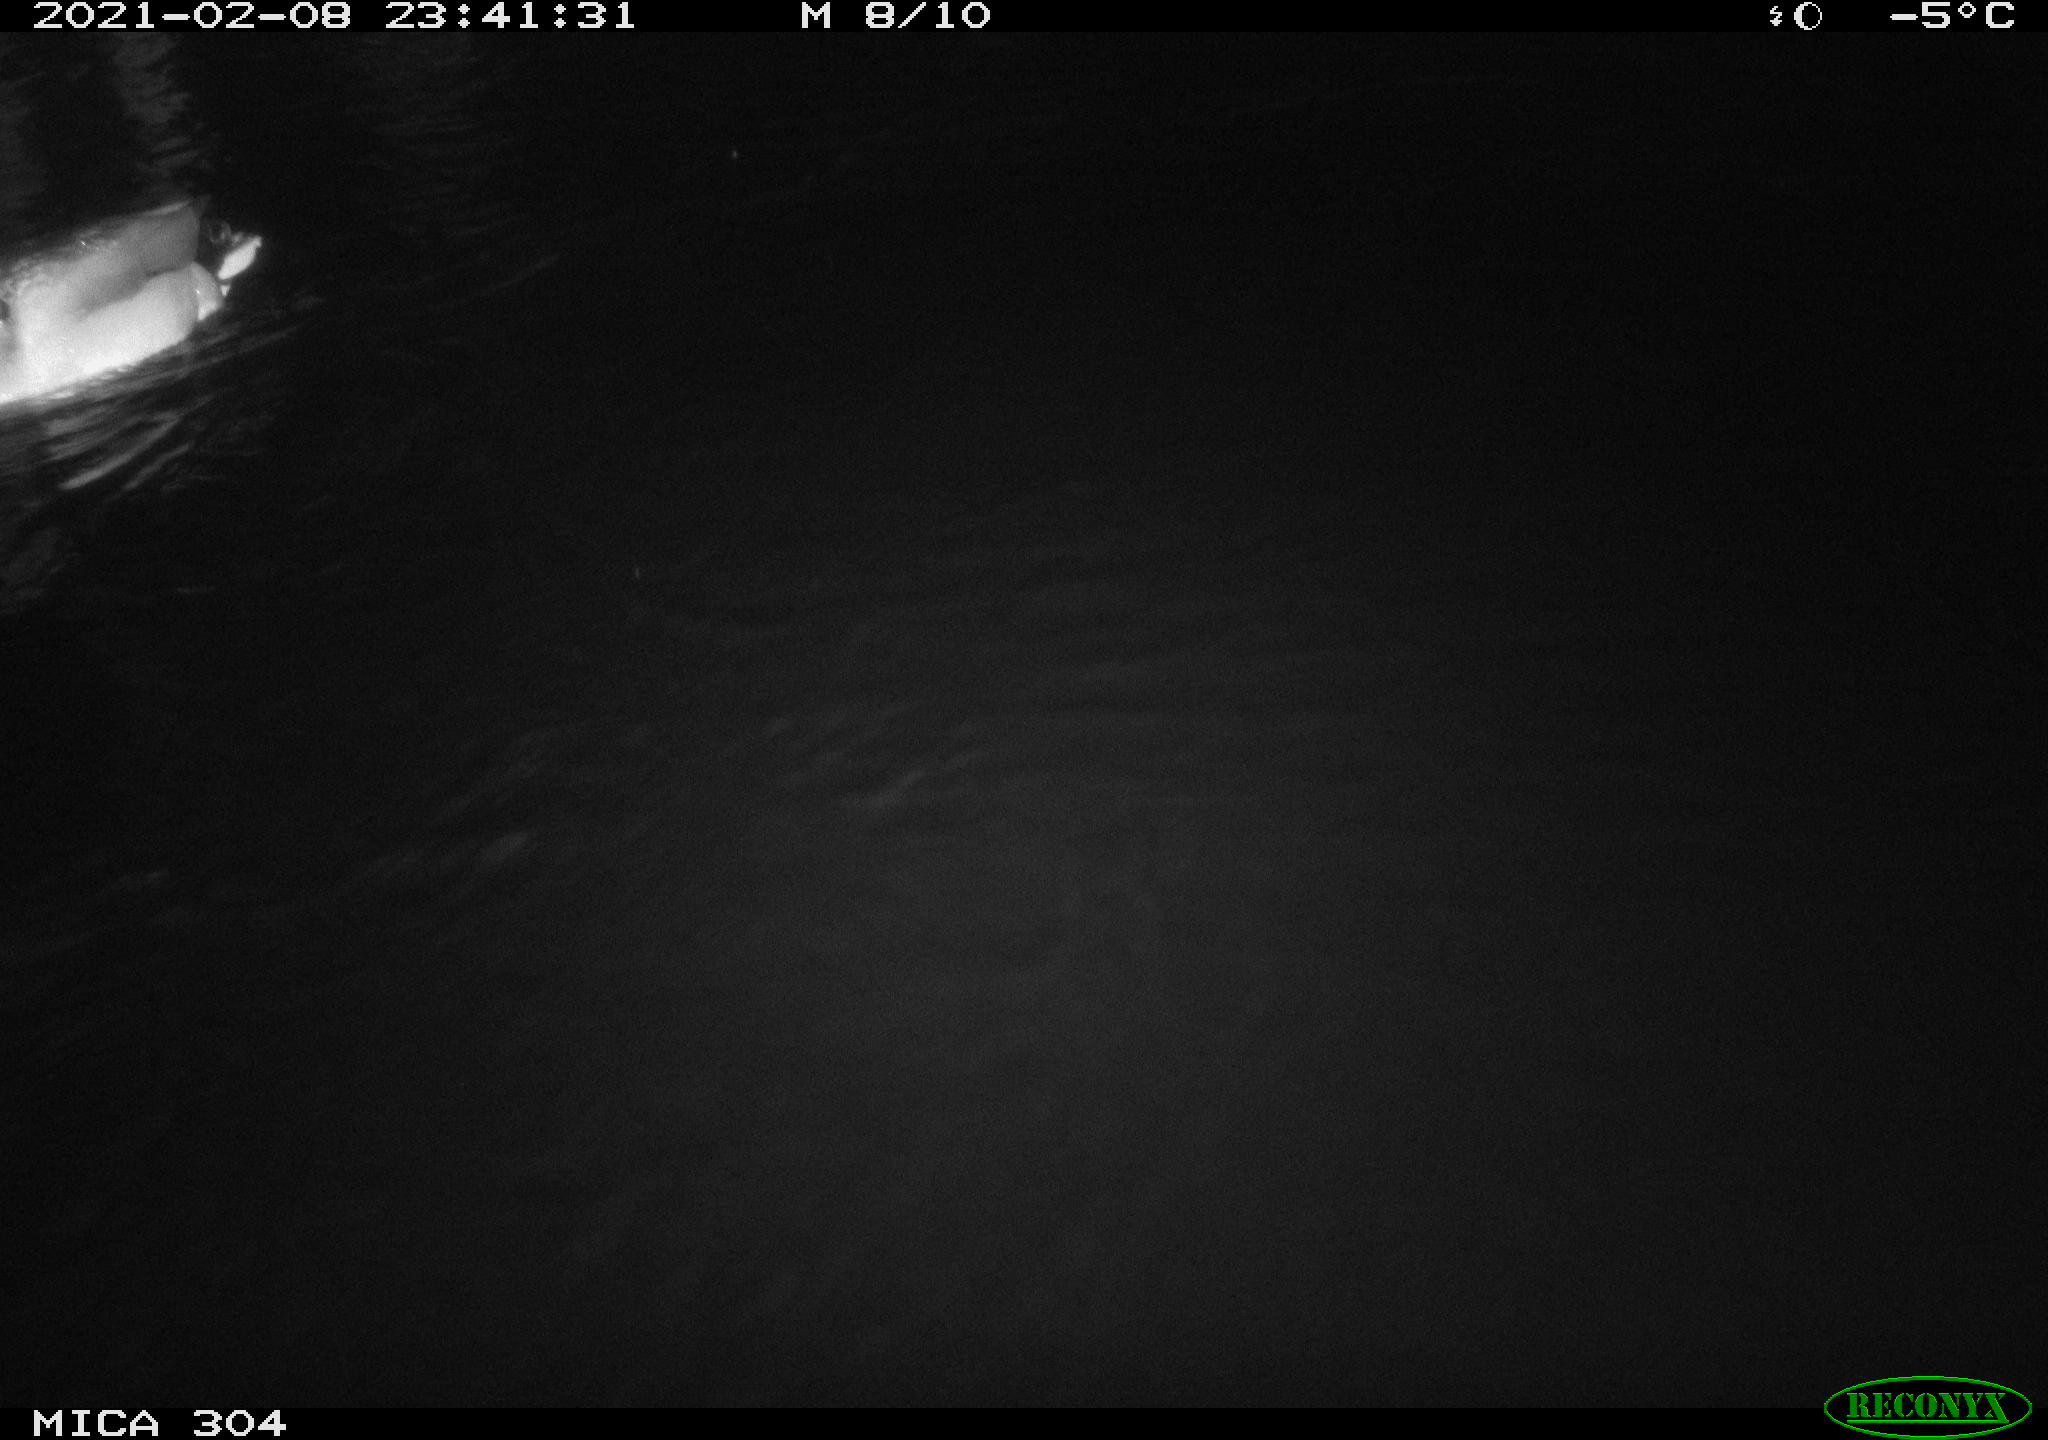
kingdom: Animalia
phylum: Chordata
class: Aves
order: Anseriformes
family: Anatidae
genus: Anas
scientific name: Anas platyrhynchos
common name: Mallard
